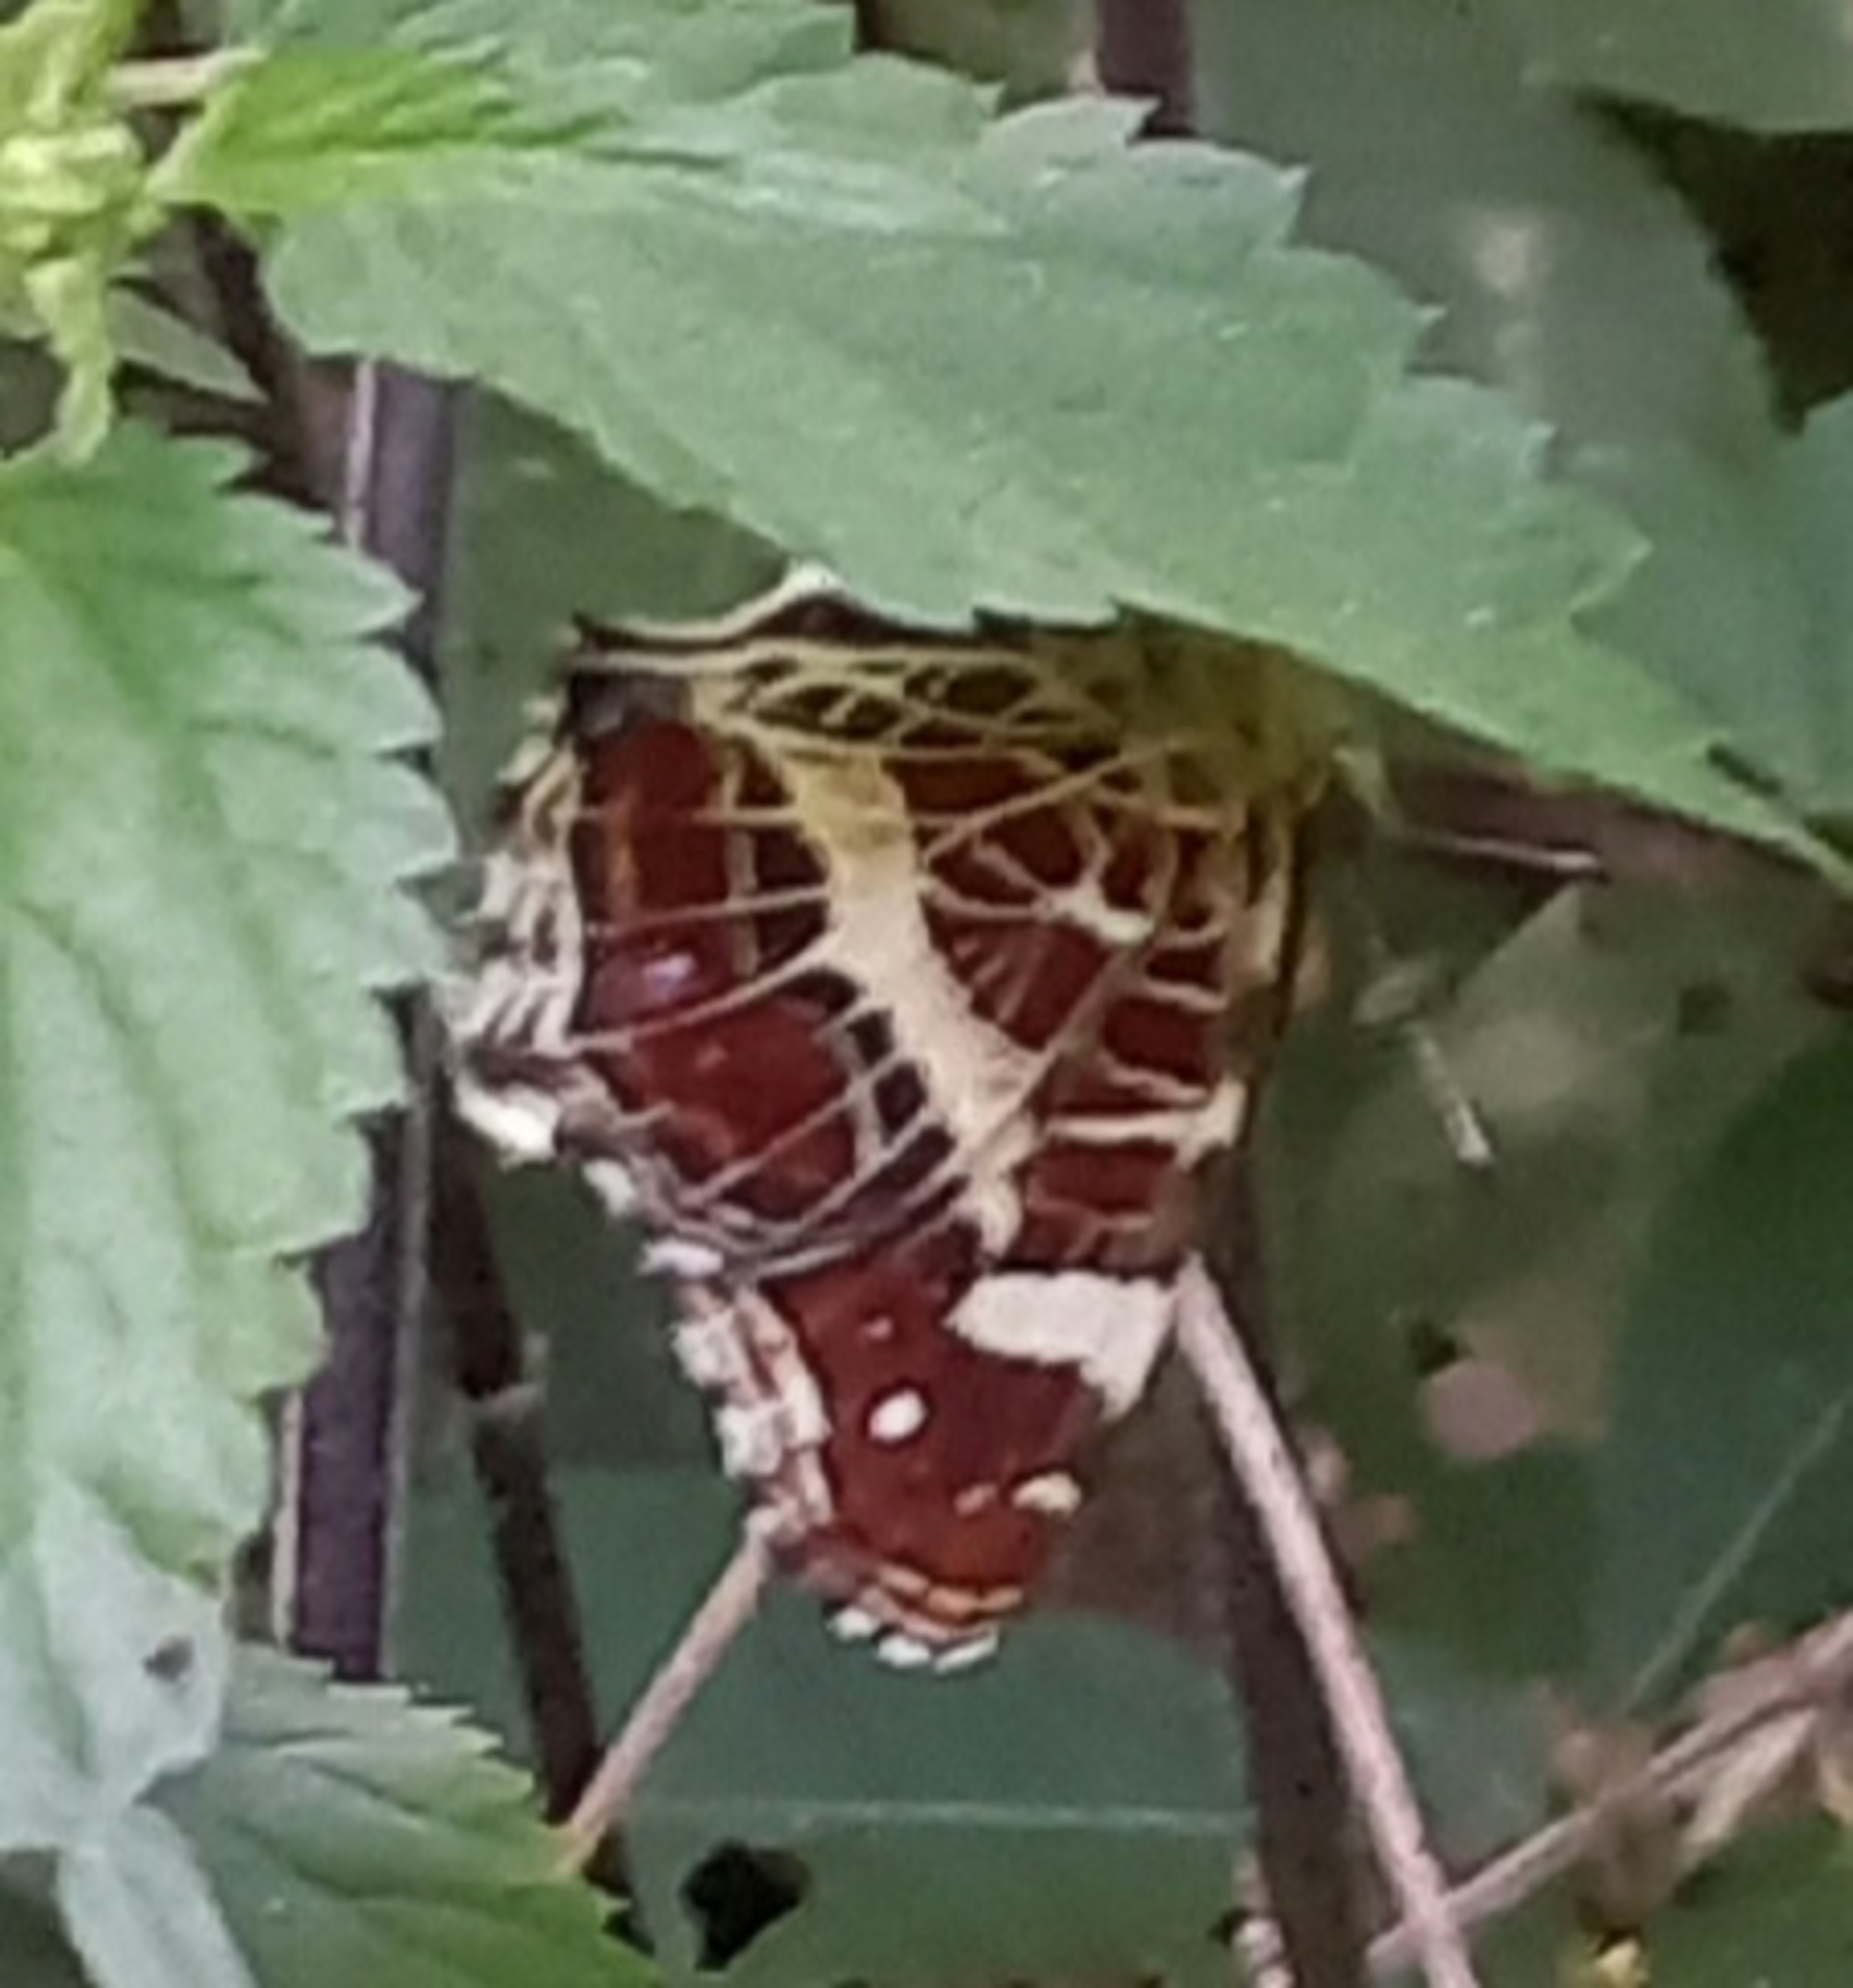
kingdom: Animalia
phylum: Arthropoda
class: Insecta
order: Lepidoptera
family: Nymphalidae
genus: Araschnia
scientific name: Araschnia levana
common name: Nældesommerfugl
